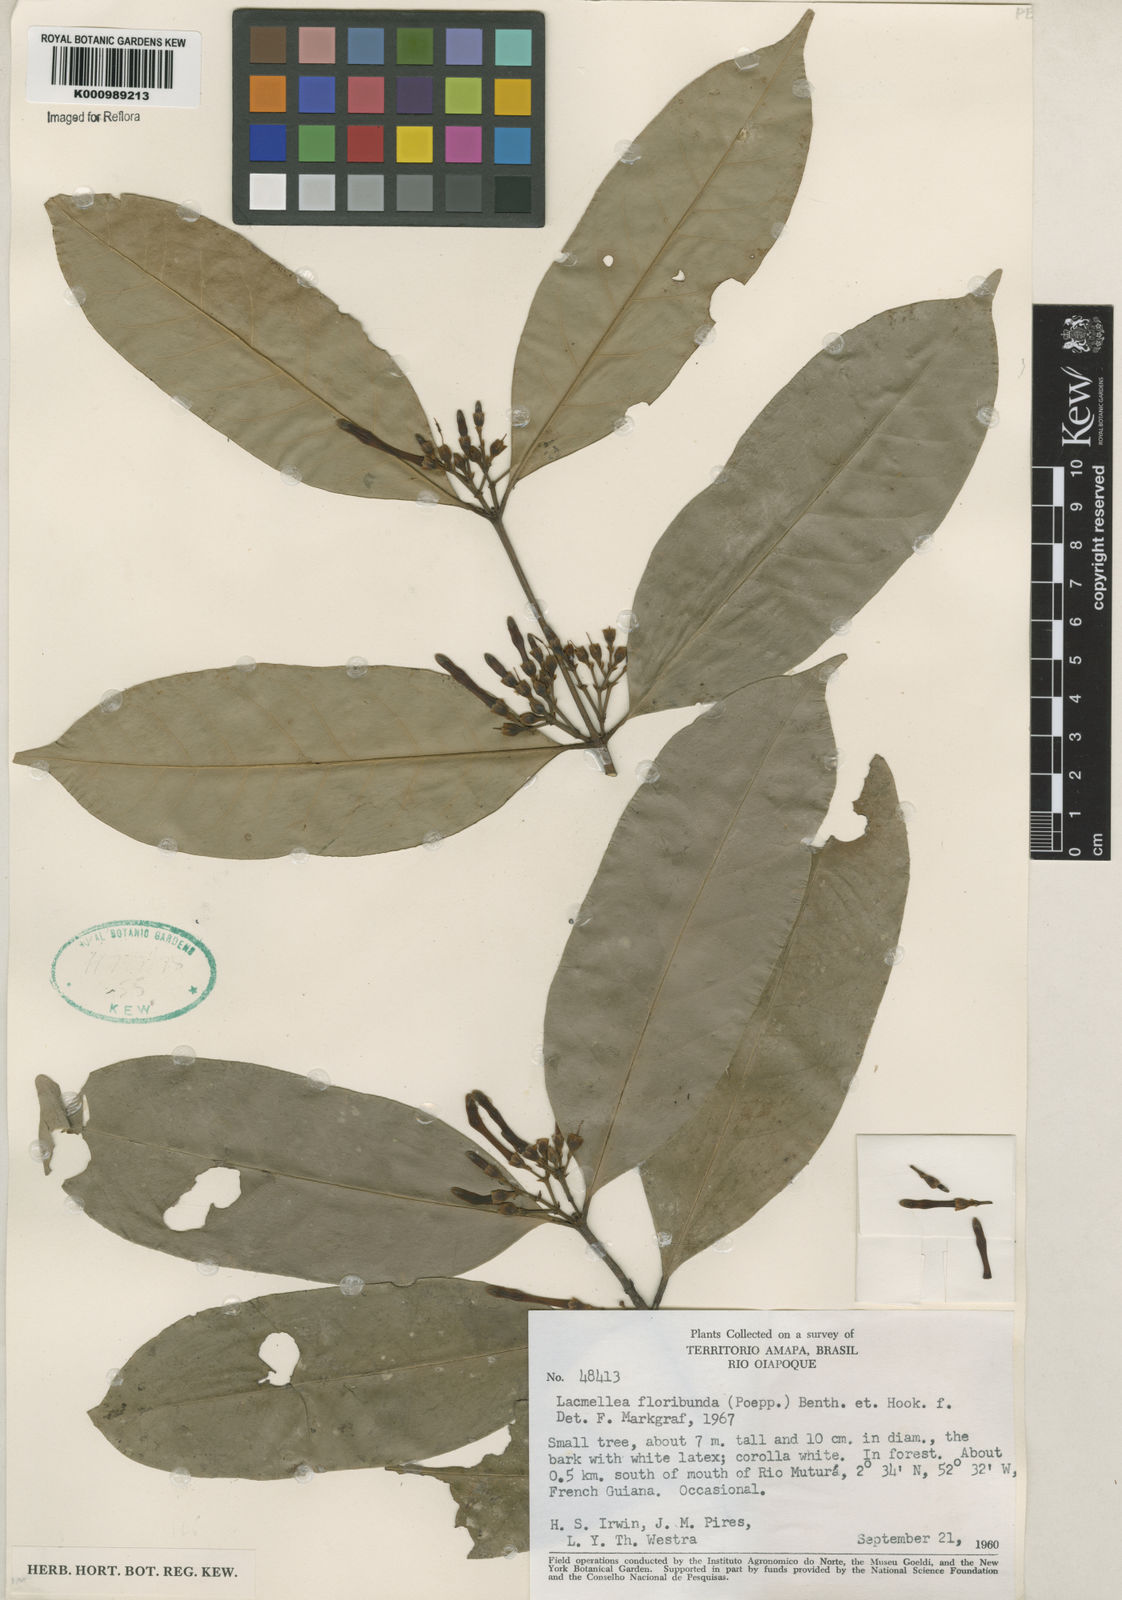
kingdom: Plantae
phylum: Tracheophyta
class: Magnoliopsida
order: Gentianales
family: Apocynaceae
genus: Lacmellea
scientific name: Lacmellea aculeata
